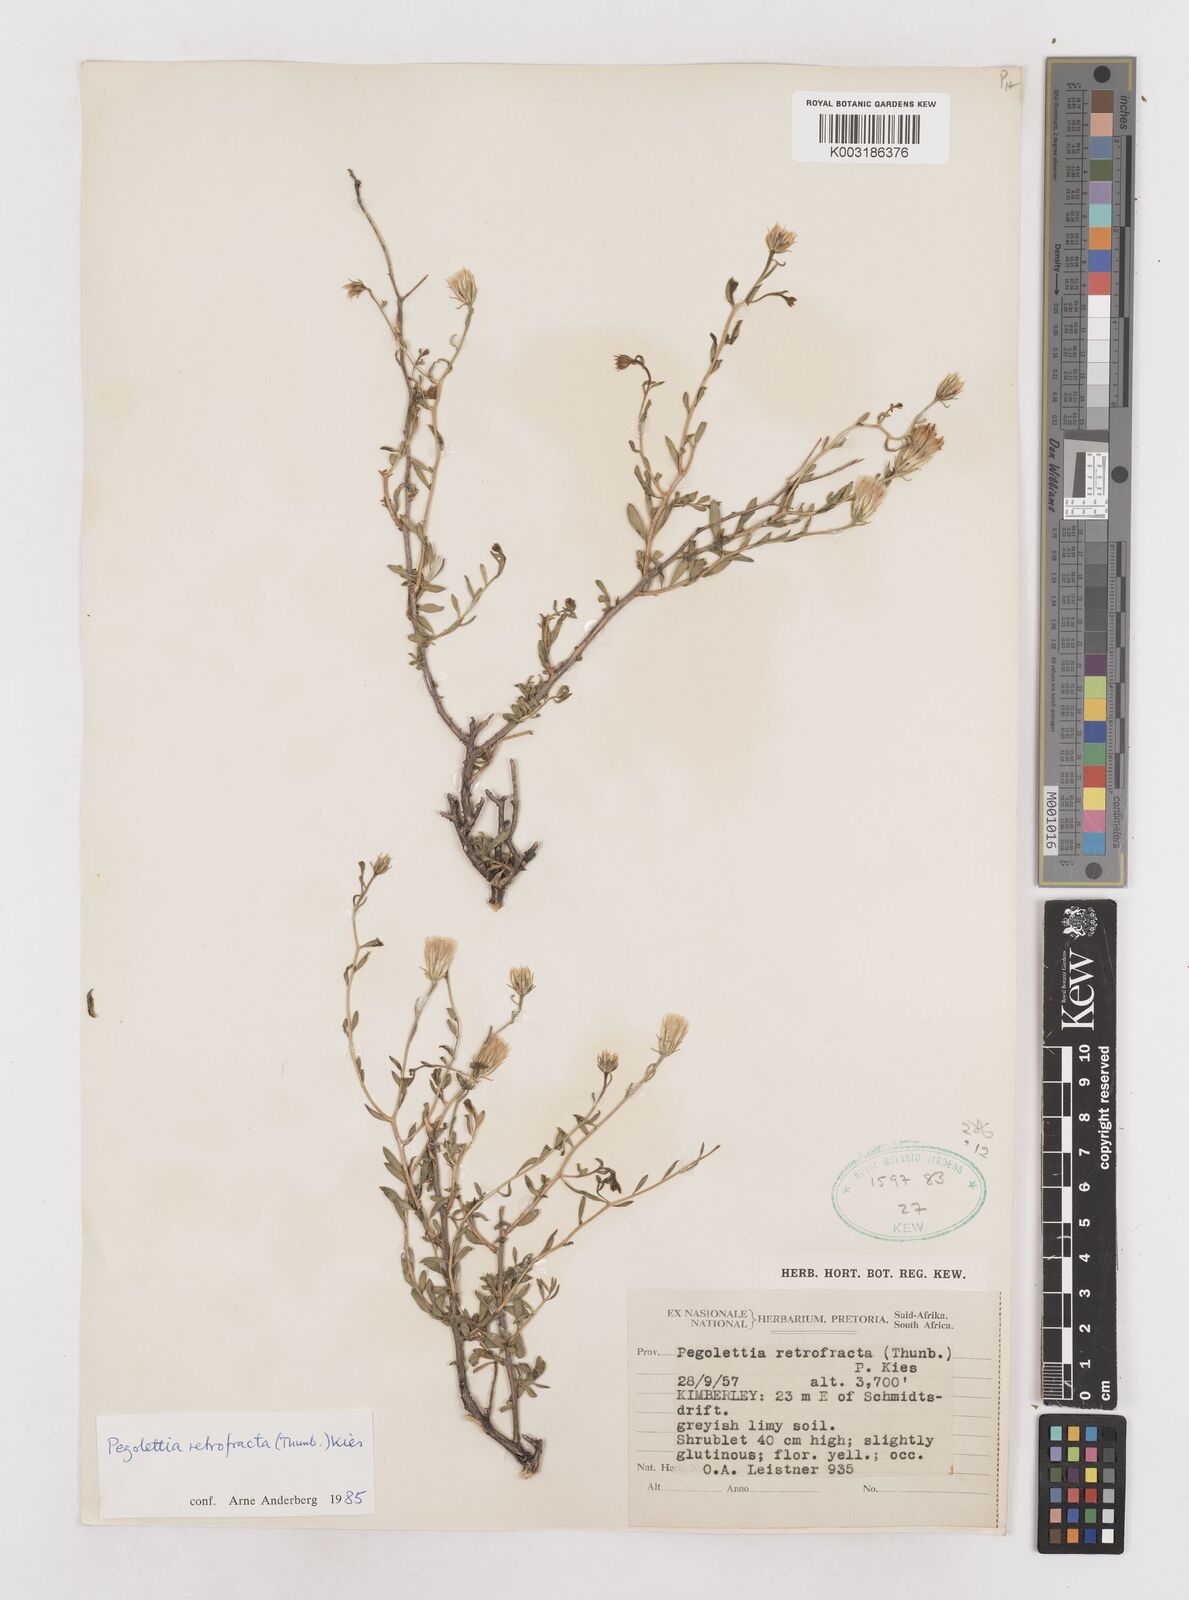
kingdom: Plantae
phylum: Tracheophyta
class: Magnoliopsida
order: Asterales
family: Asteraceae
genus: Pegolettia
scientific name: Pegolettia retrofracta
